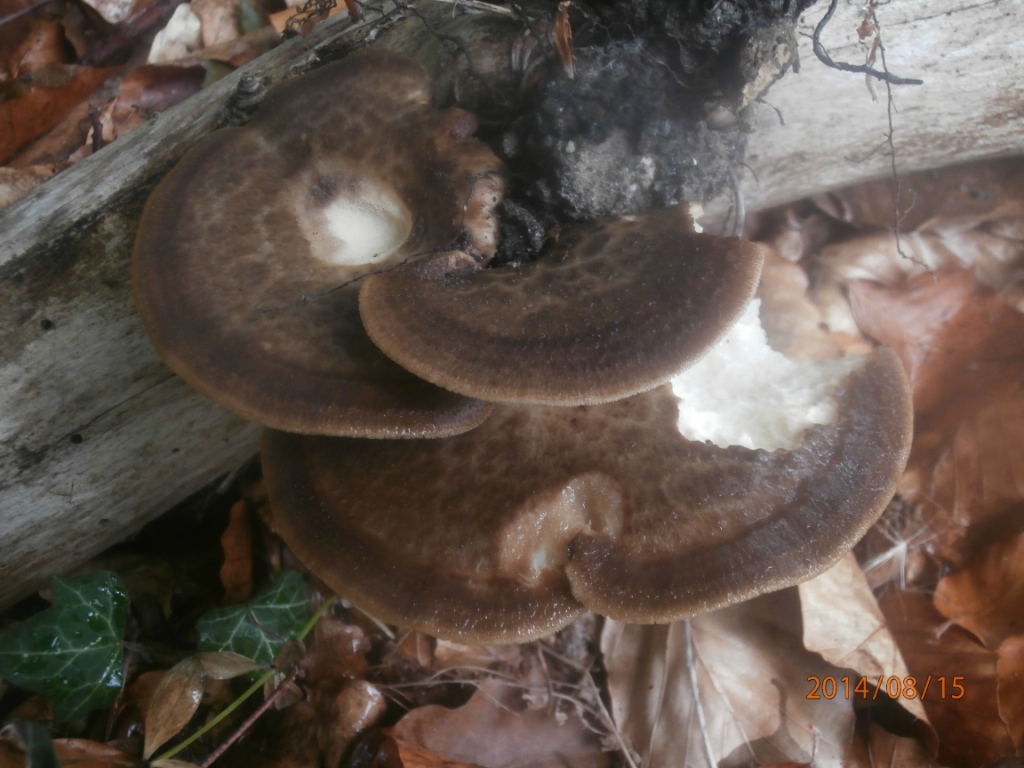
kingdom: Fungi
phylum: Basidiomycota
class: Agaricomycetes
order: Polyporales
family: Polyporaceae
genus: Polyporus
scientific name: Polyporus tuberaster
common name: knoldet stilkporesvamp
